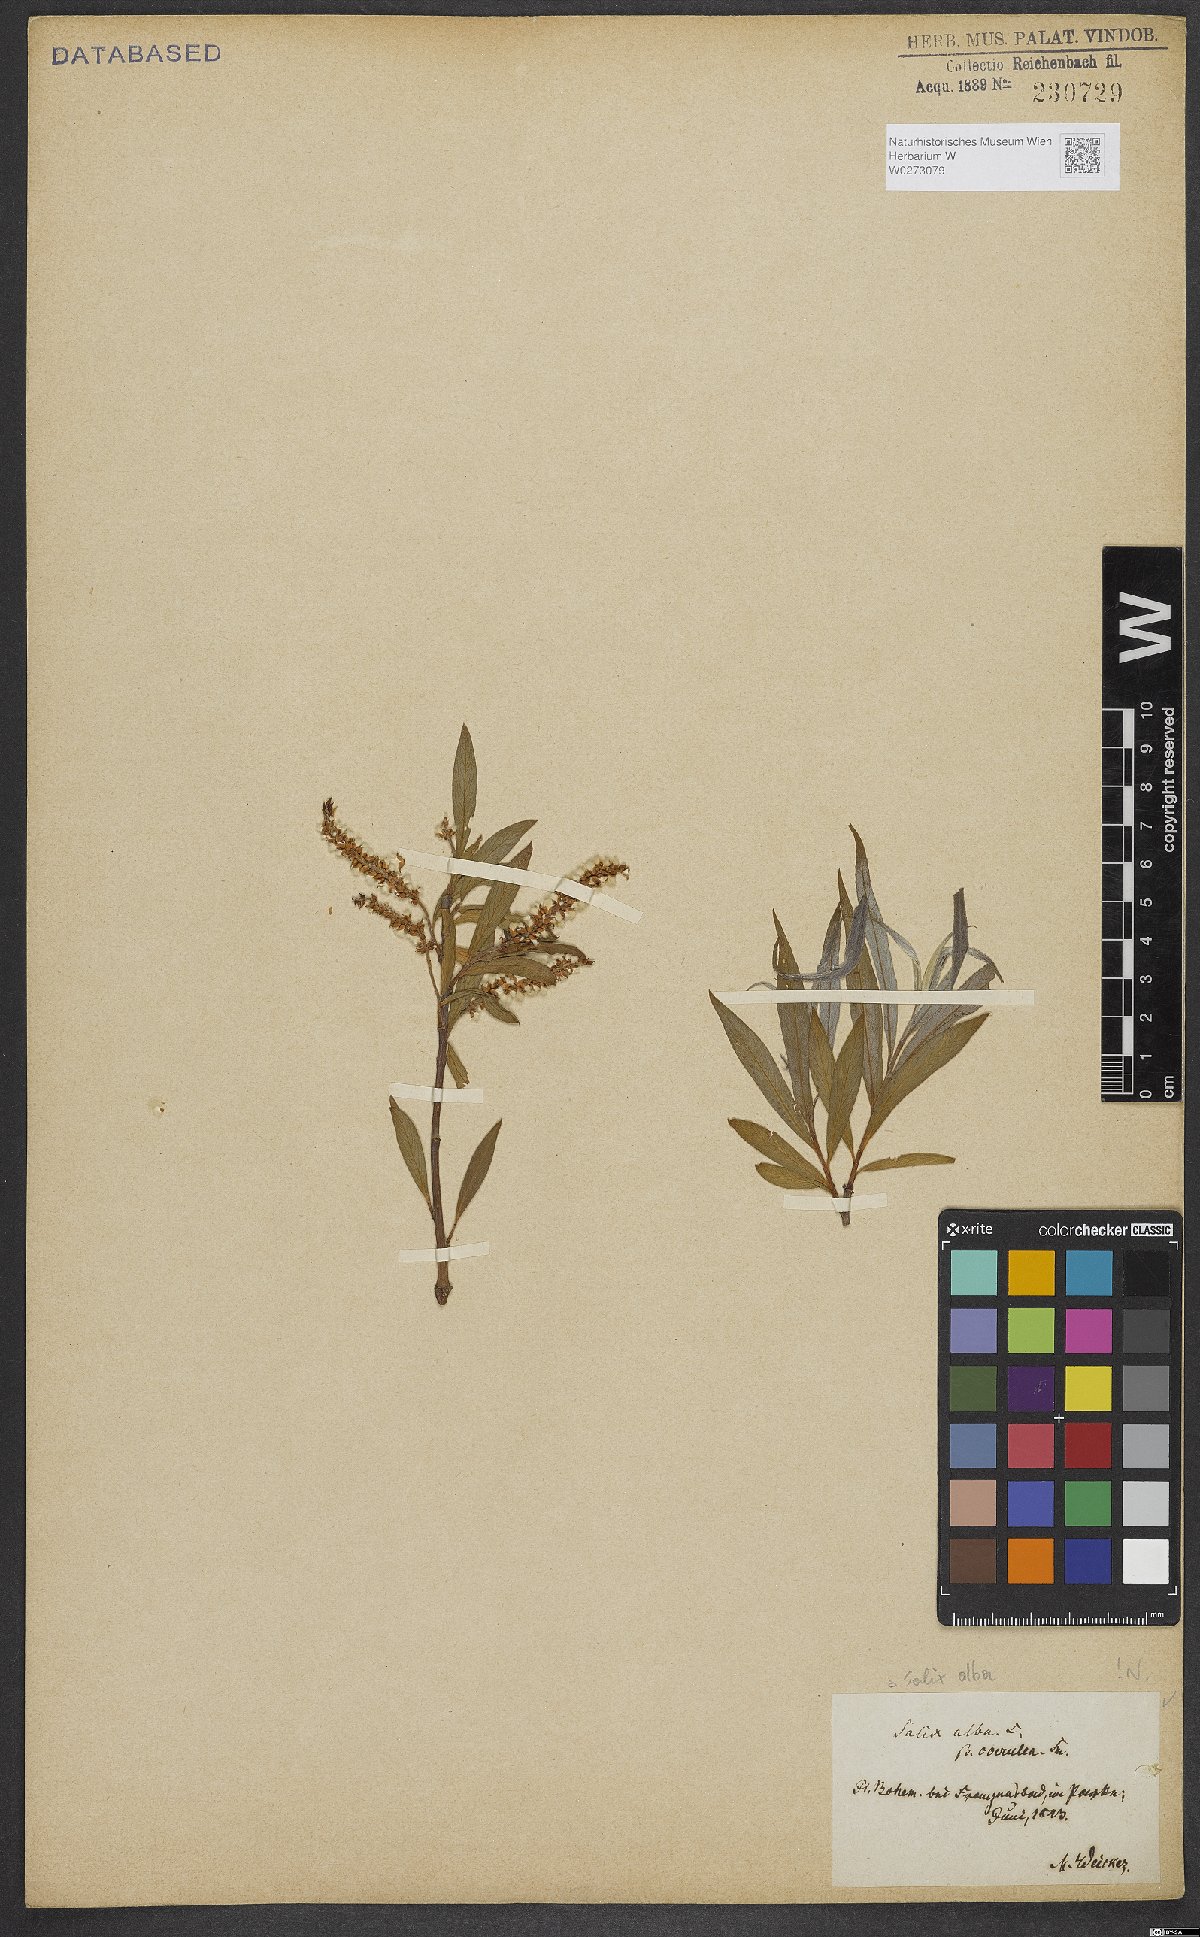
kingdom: Plantae
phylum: Tracheophyta
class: Magnoliopsida
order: Malpighiales
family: Salicaceae
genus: Salix
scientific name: Salix alba
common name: White willow
